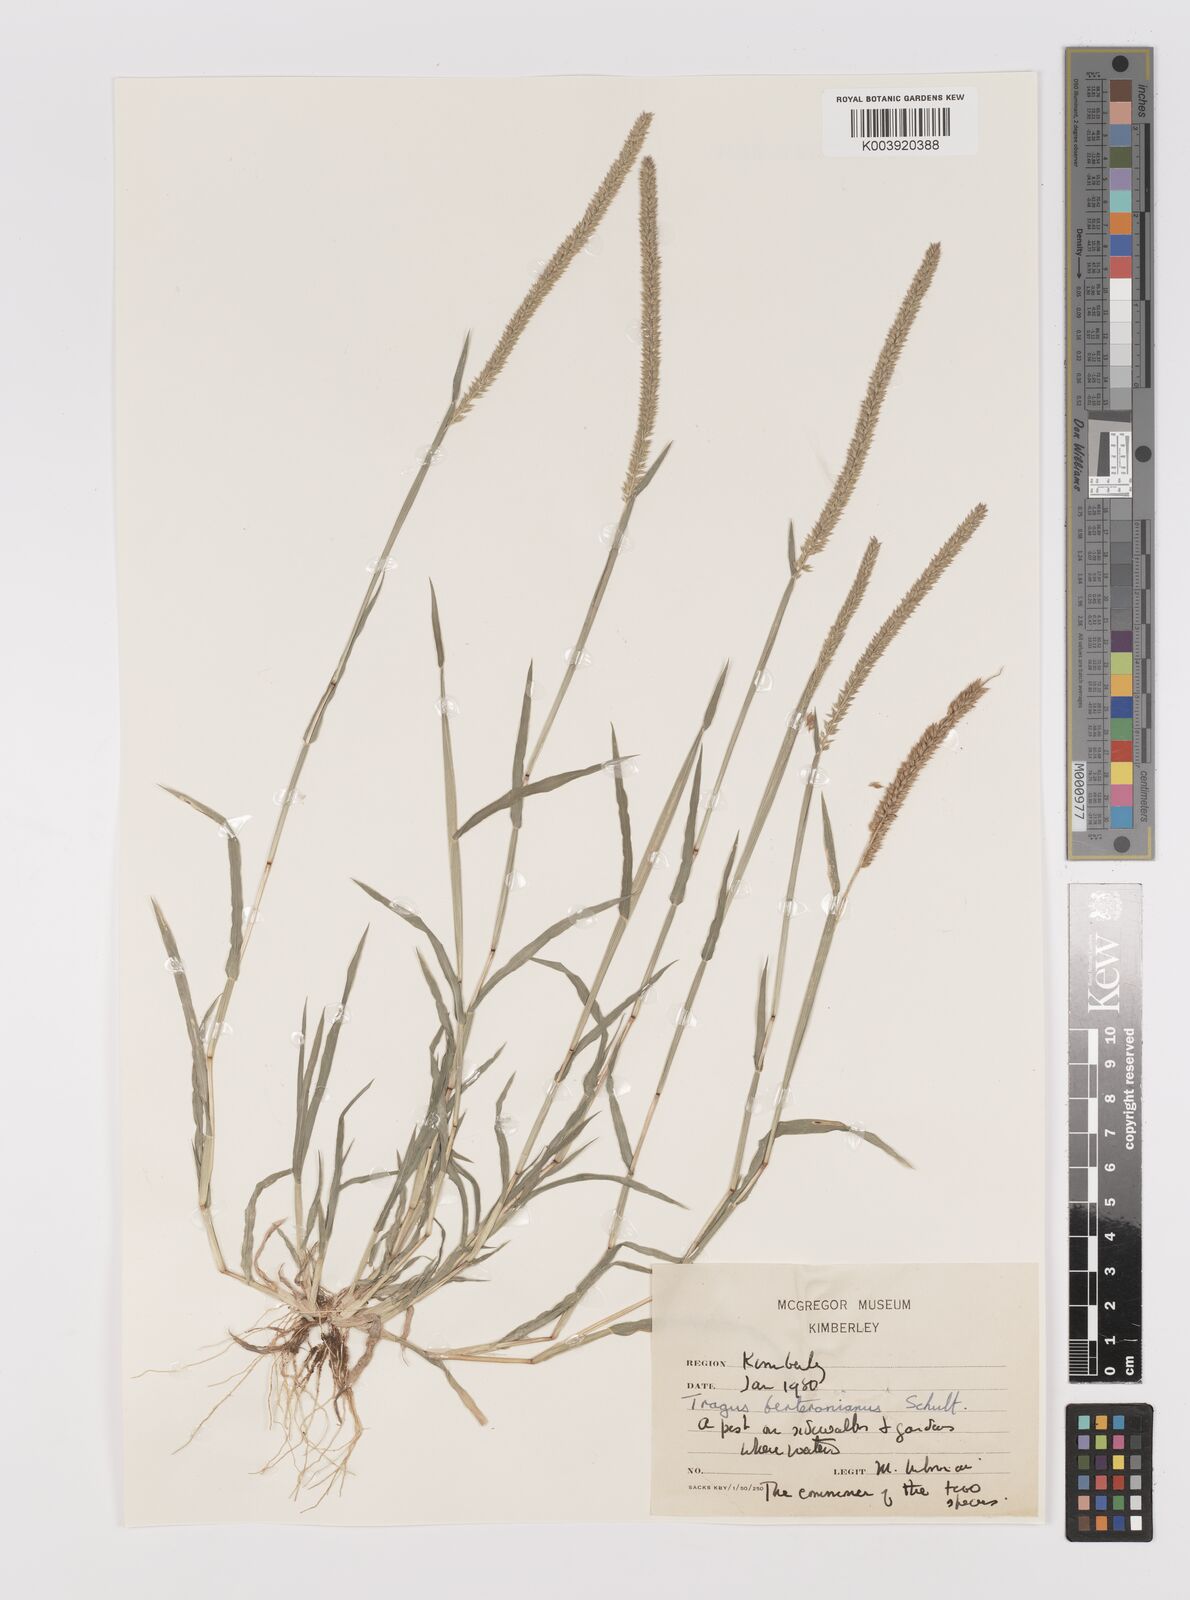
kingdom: Plantae
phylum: Tracheophyta
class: Liliopsida
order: Poales
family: Poaceae
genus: Tragus
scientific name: Tragus berteronianus
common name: African bur-grass
